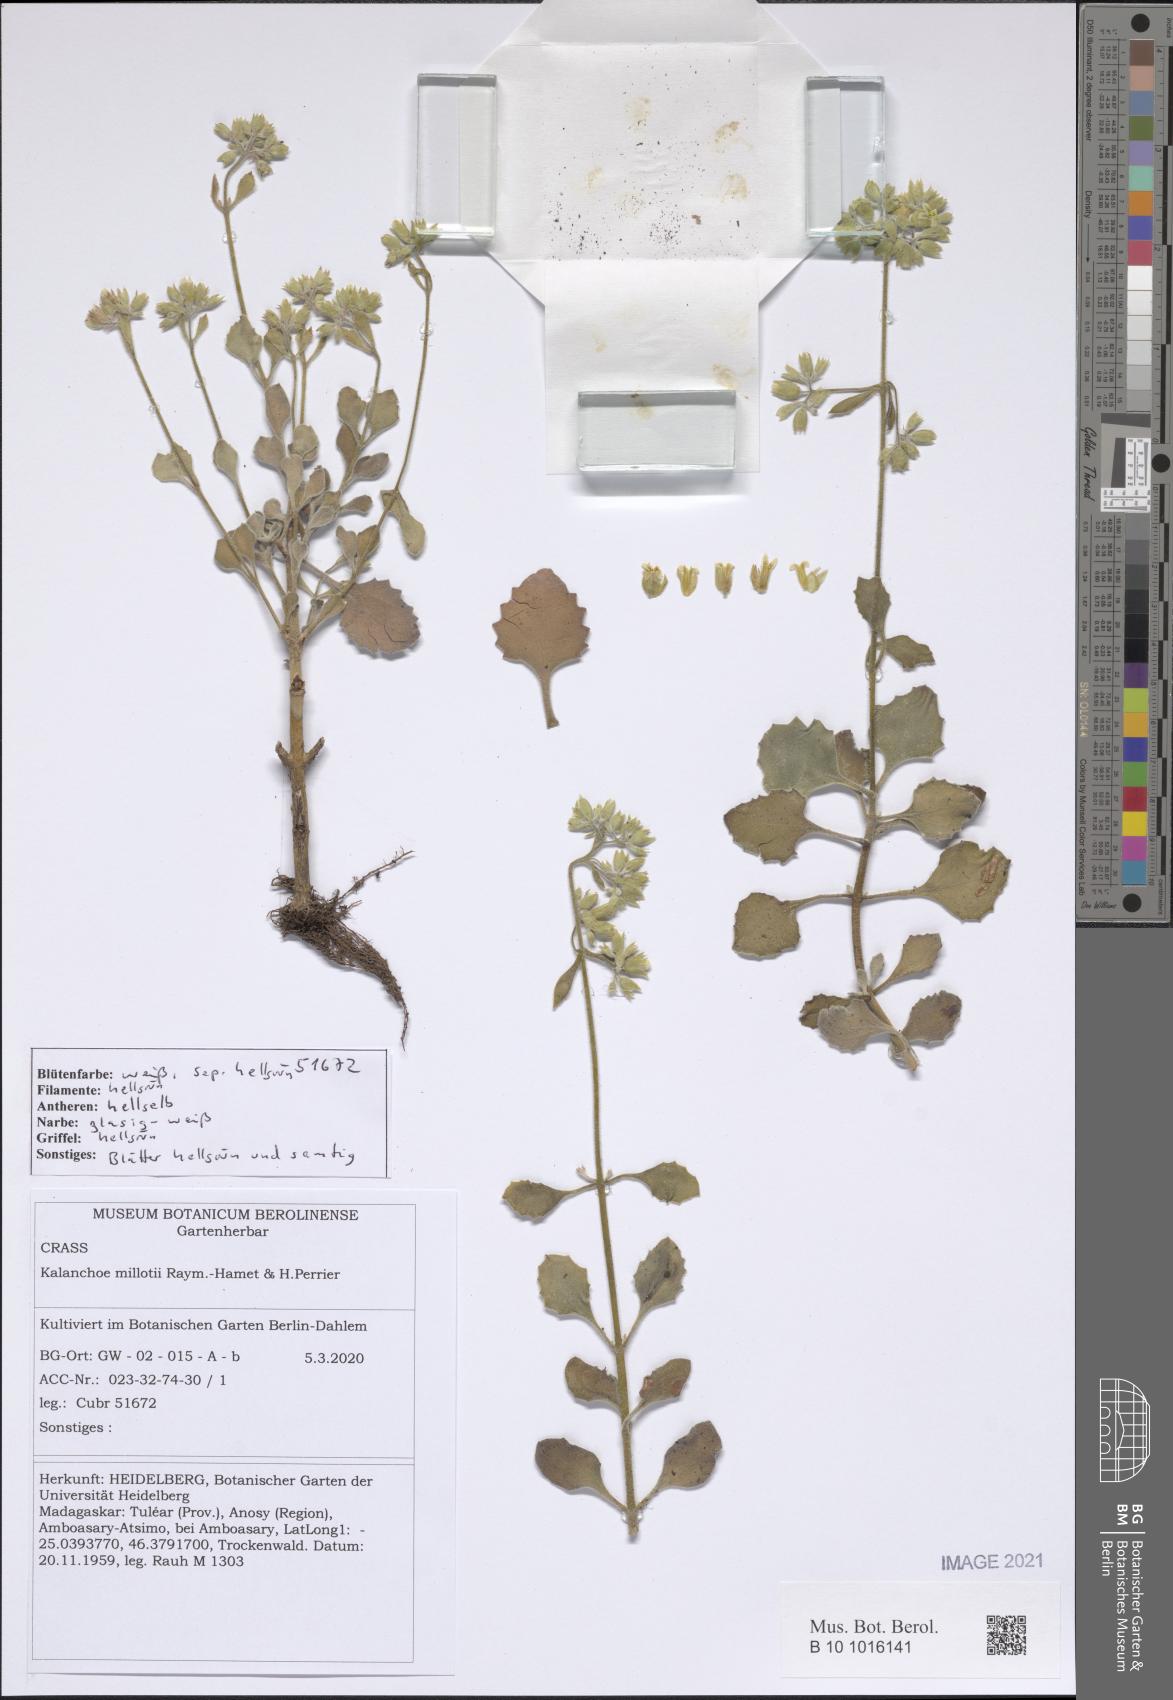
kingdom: Plantae
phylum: Tracheophyta
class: Magnoliopsida
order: Saxifragales
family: Crassulaceae
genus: Kalanchoe
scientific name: Kalanchoe millotii
